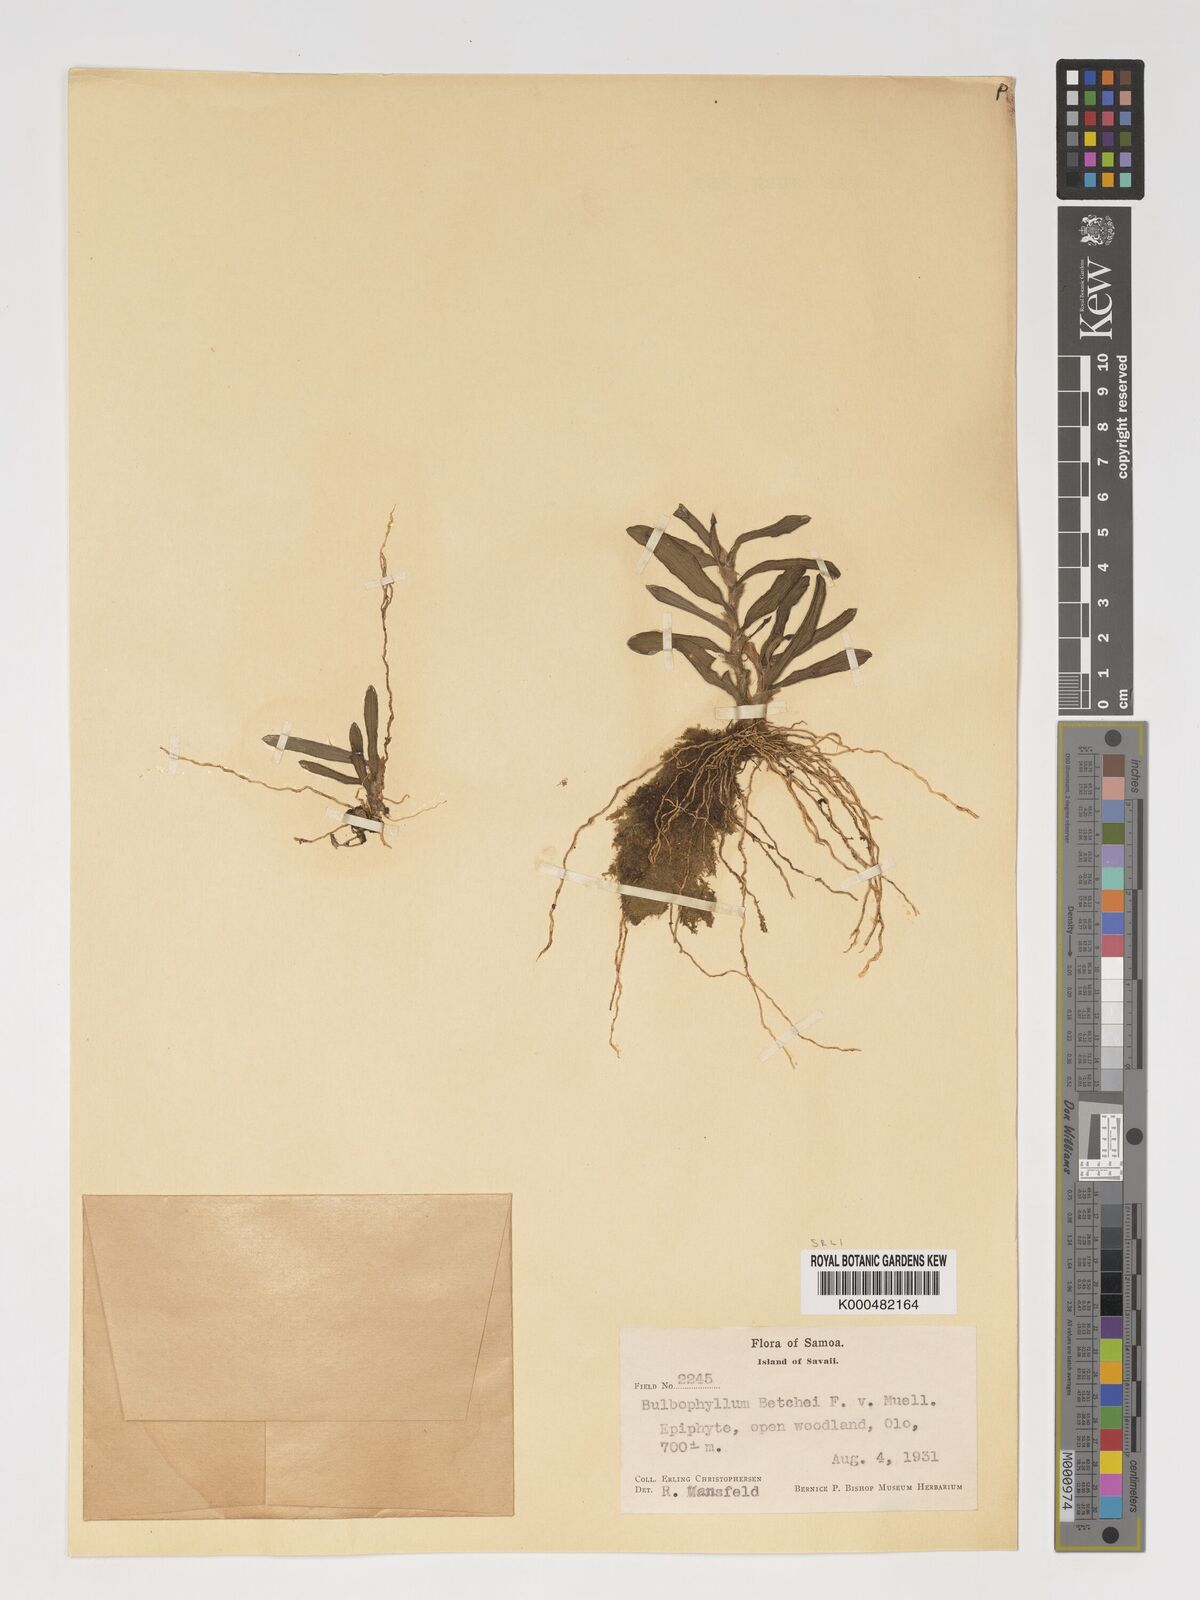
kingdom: Plantae
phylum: Tracheophyta
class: Liliopsida
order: Asparagales
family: Orchidaceae
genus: Bulbophyllum
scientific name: Bulbophyllum betchei
